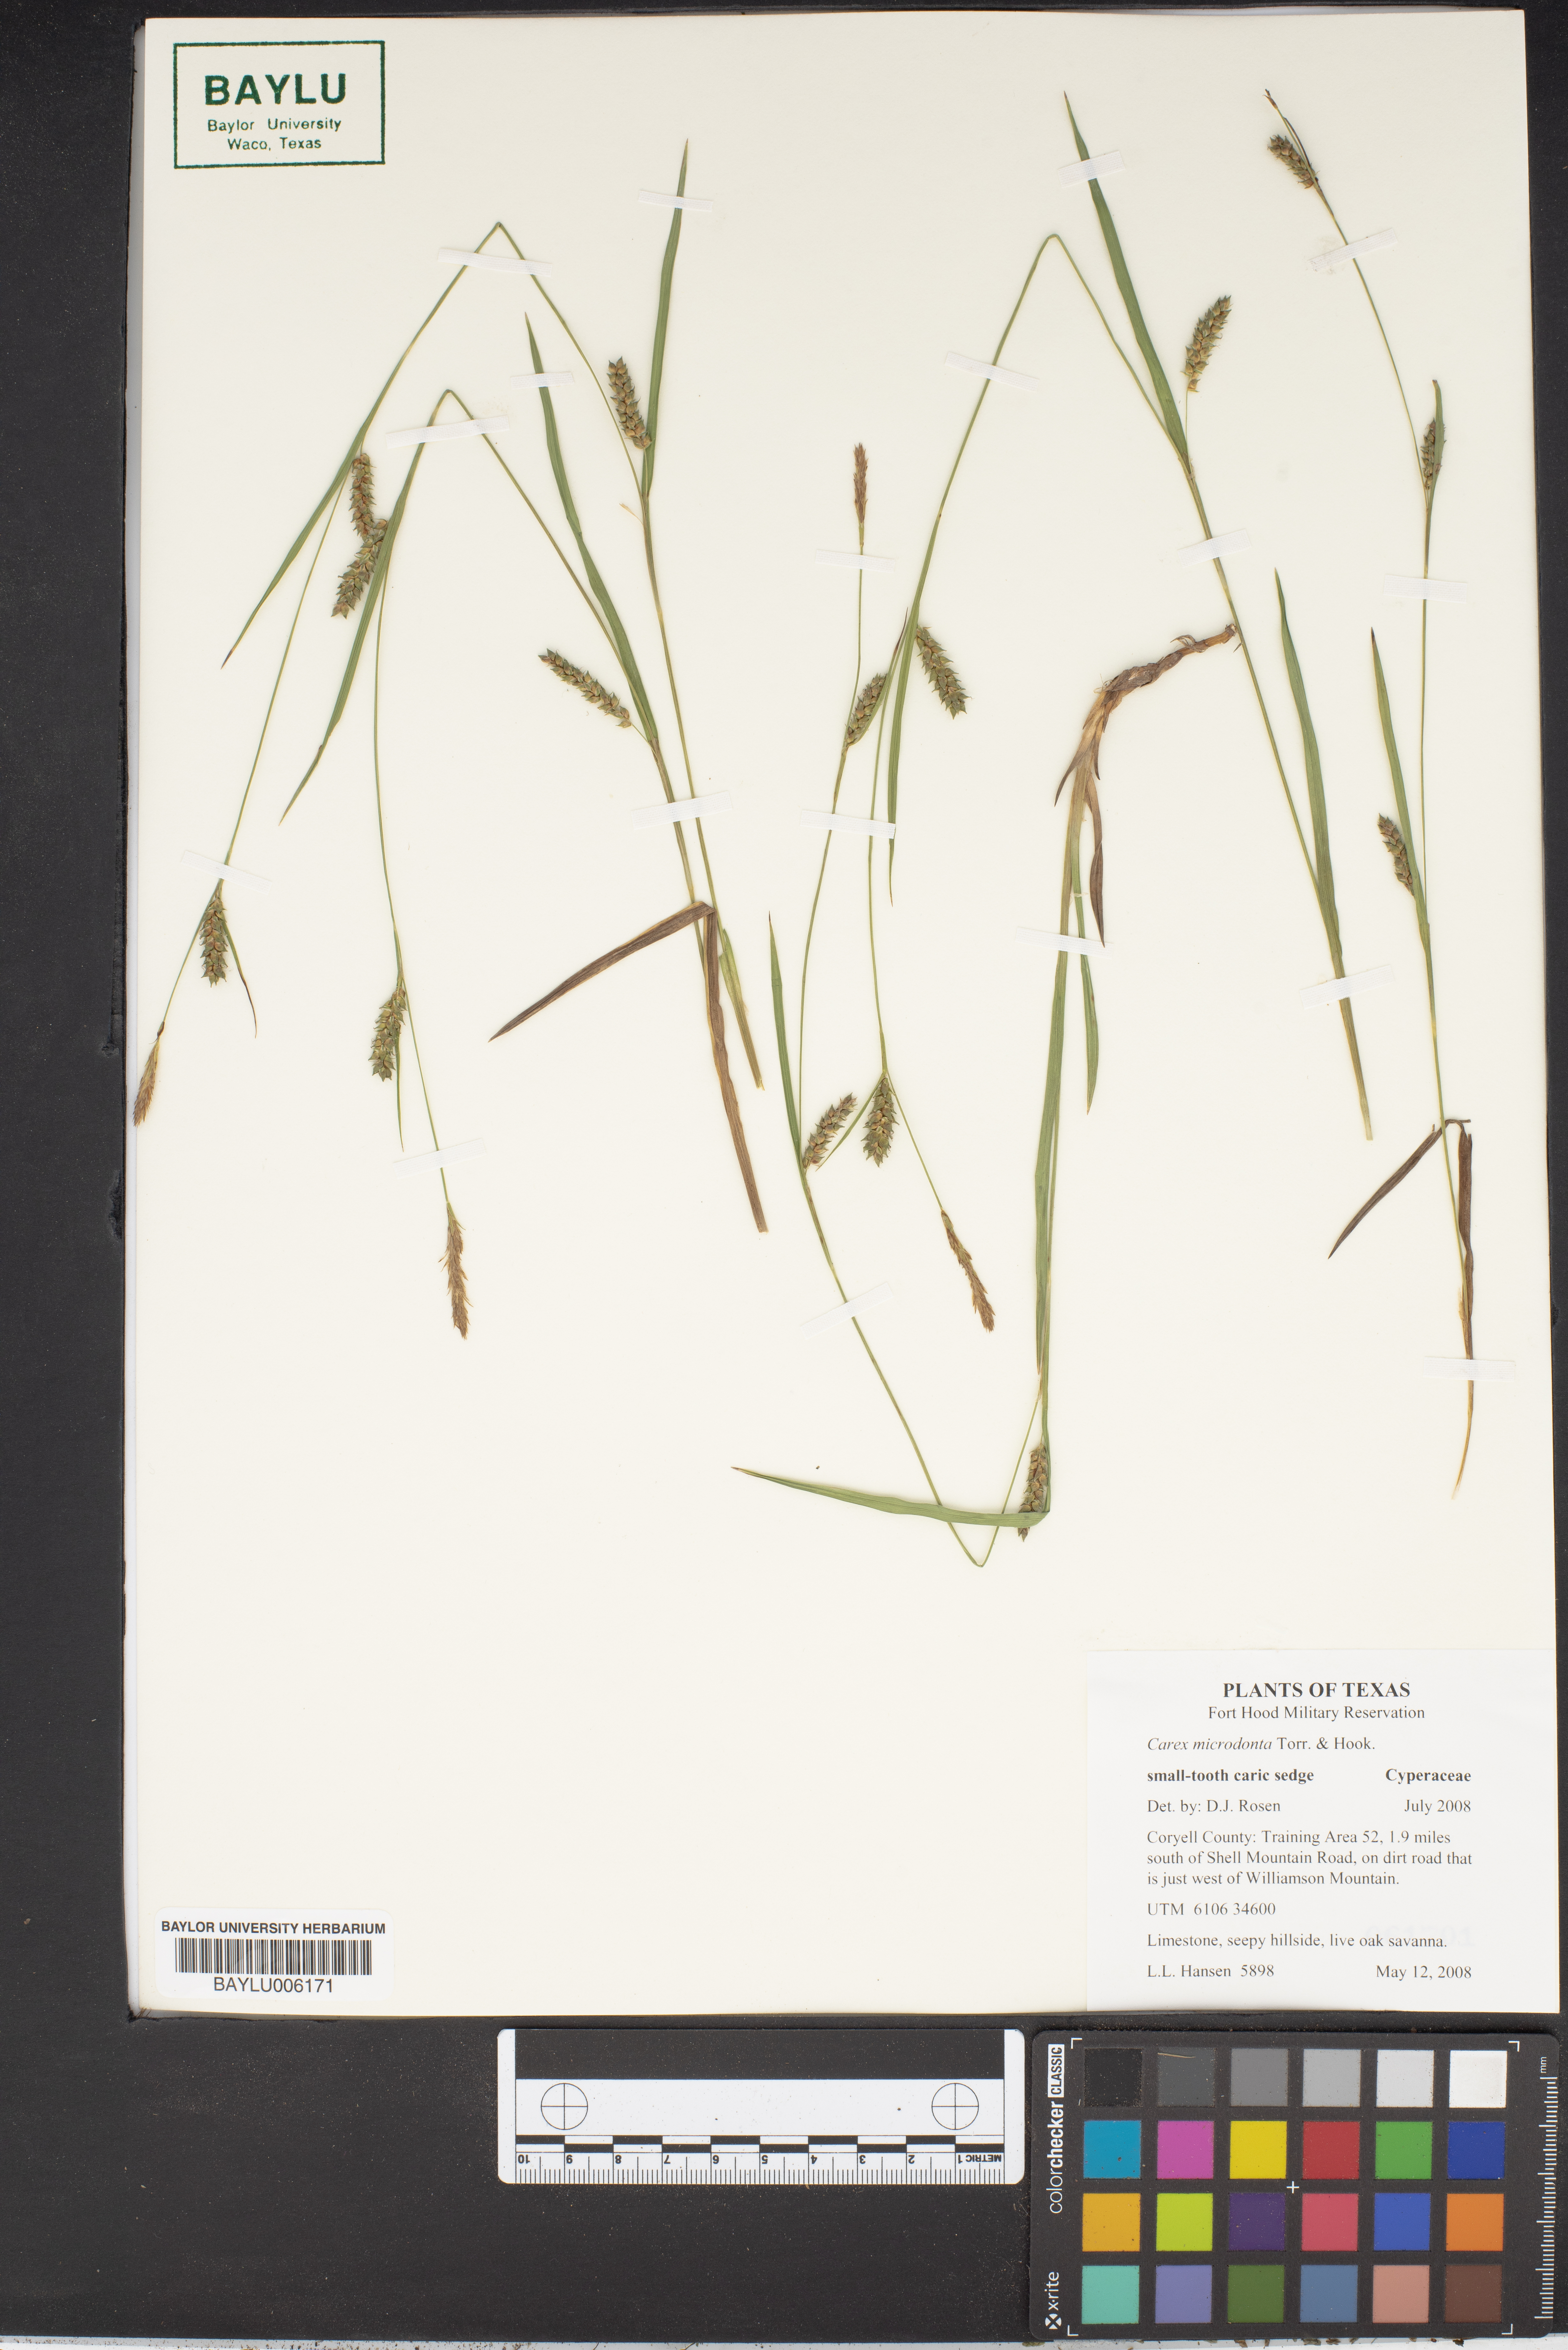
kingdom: Plantae
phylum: Tracheophyta
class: Liliopsida
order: Poales
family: Cyperaceae
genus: Carex
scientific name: Carex microdonta
